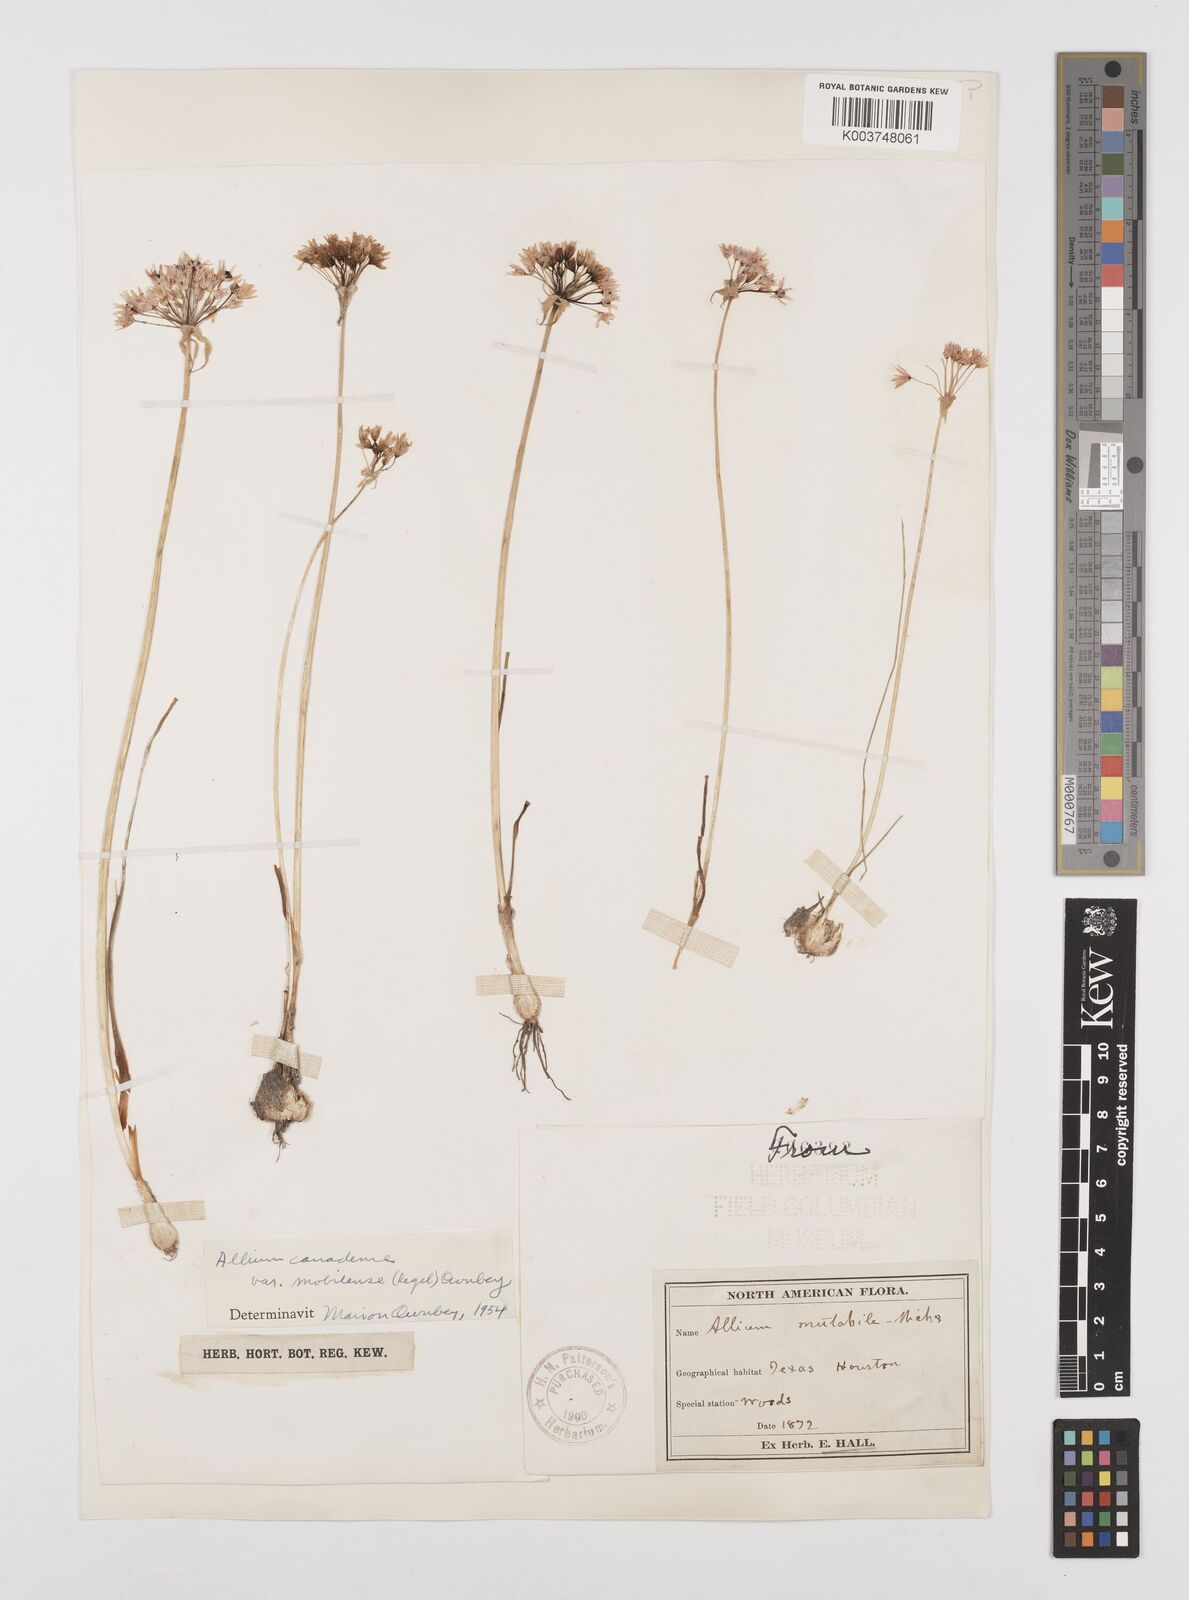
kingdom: Plantae
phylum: Tracheophyta
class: Liliopsida
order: Asparagales
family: Amaryllidaceae
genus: Allium
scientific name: Allium canadense
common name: Meadow garlic
